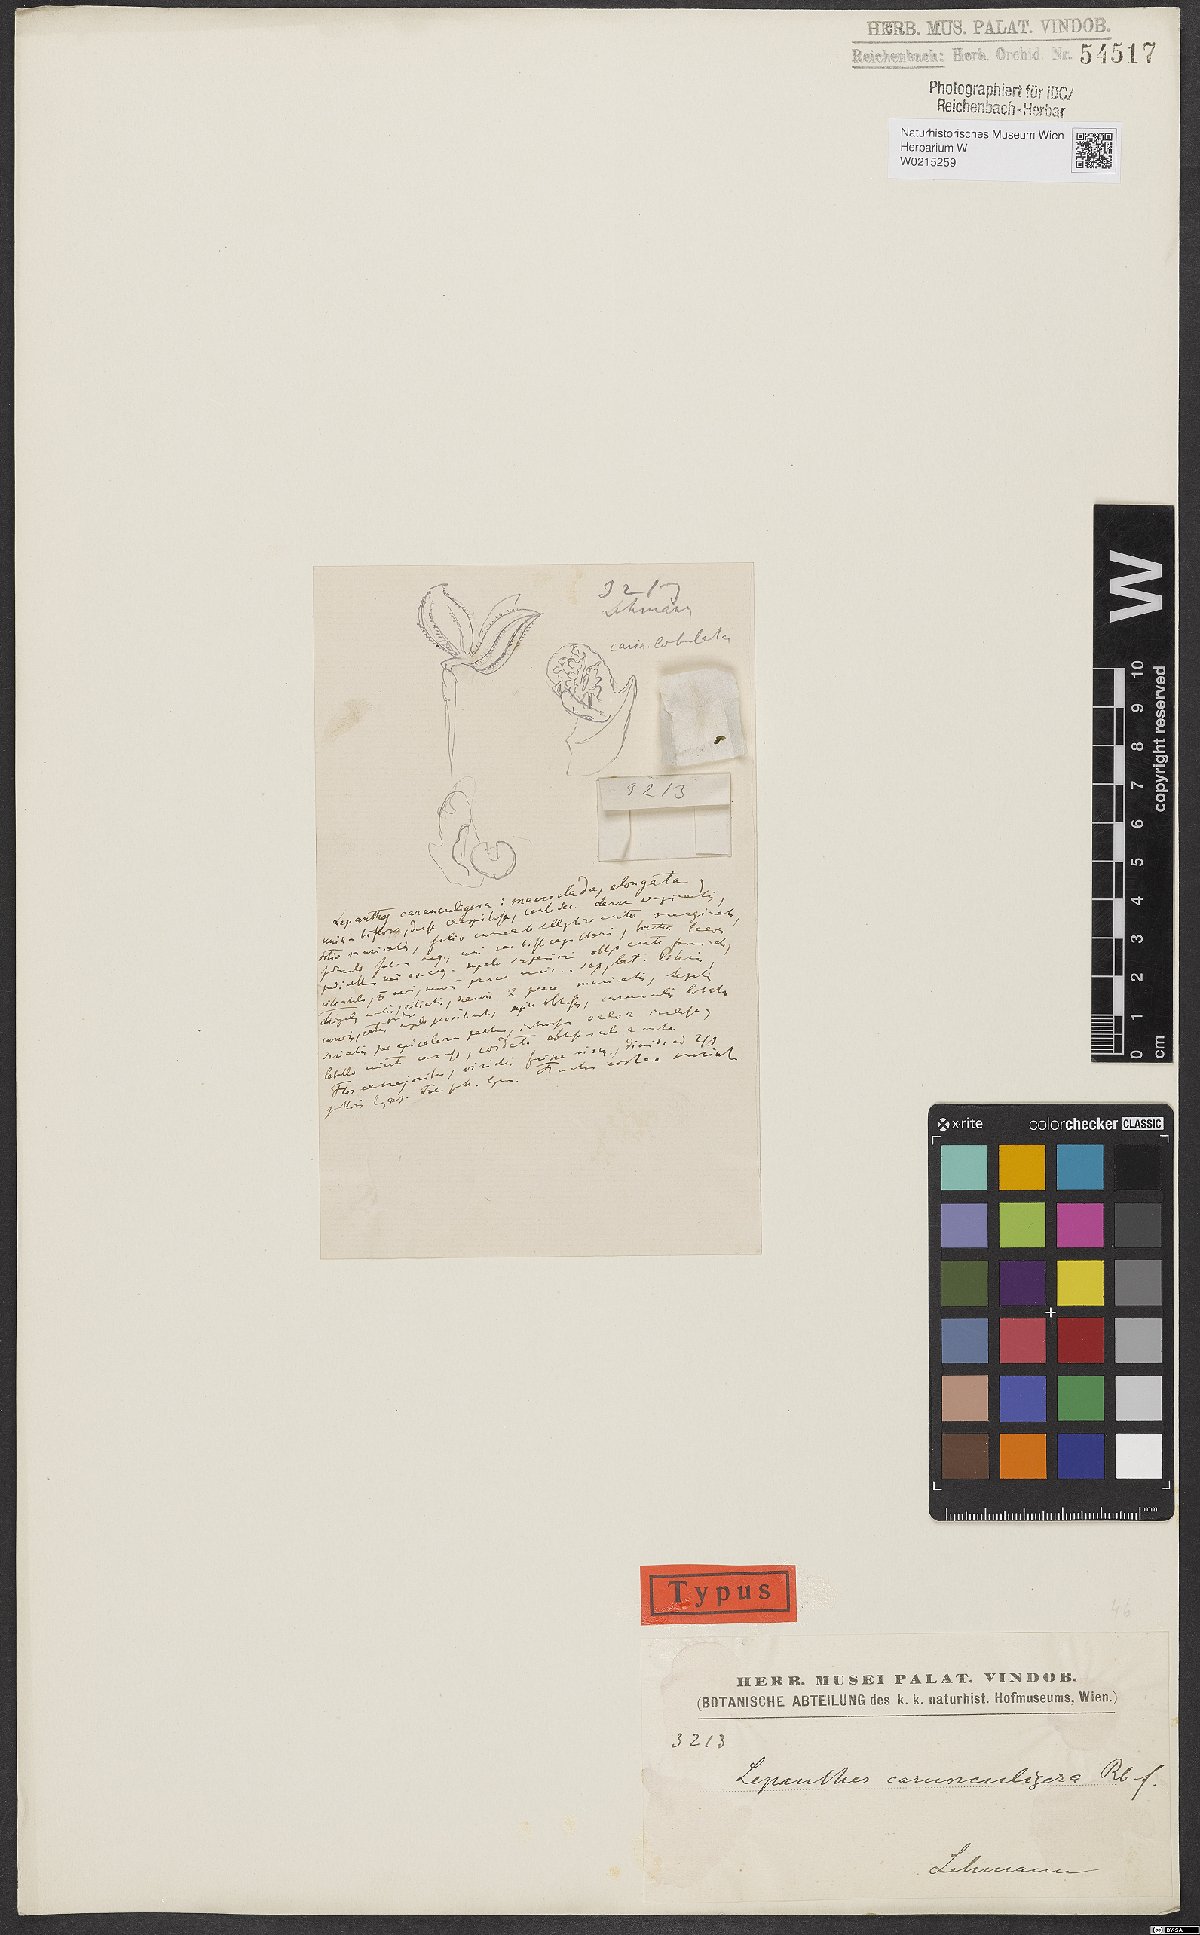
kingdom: Plantae
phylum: Tracheophyta
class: Liliopsida
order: Asparagales
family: Orchidaceae
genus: Lepanthes
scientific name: Lepanthes
